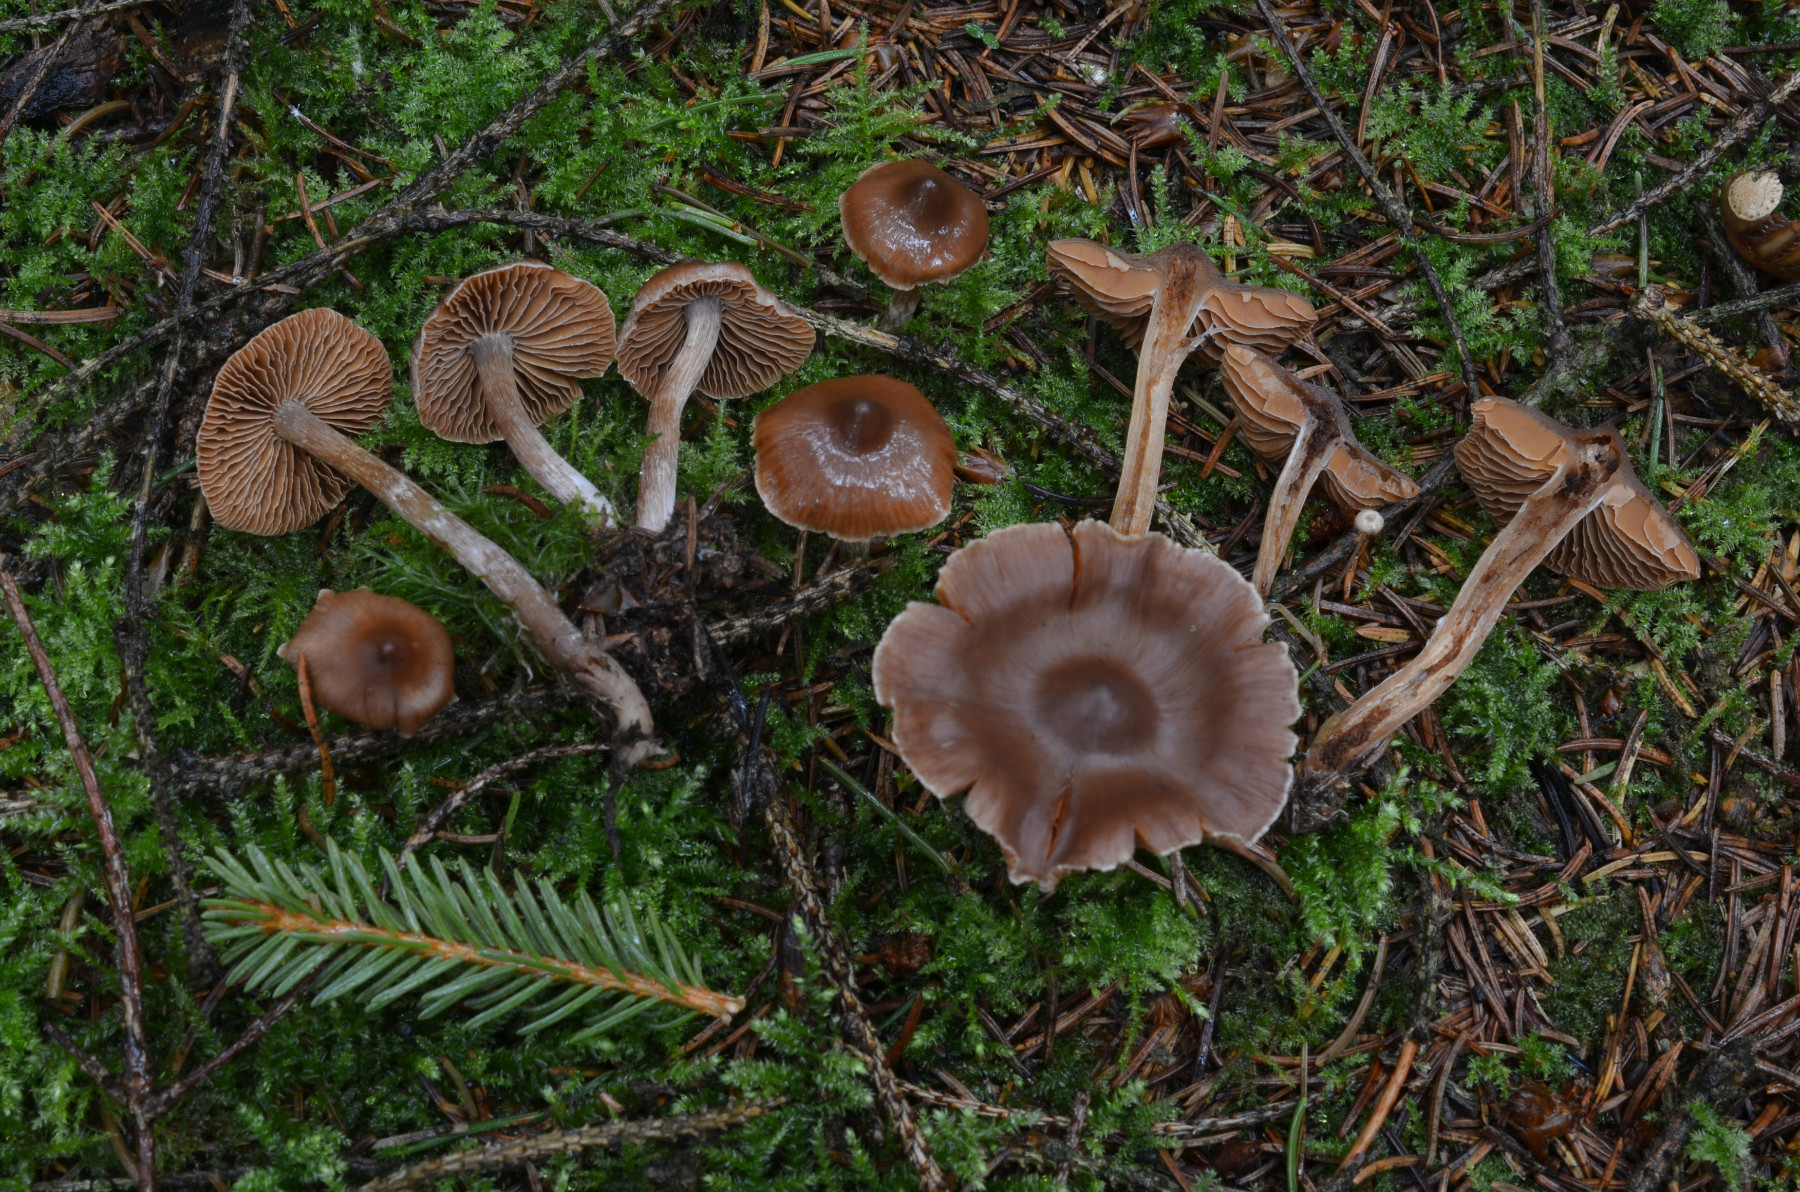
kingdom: Fungi
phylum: Basidiomycota
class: Agaricomycetes
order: Agaricales
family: Cortinariaceae
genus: Cortinarius
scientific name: Cortinarius comptulus
